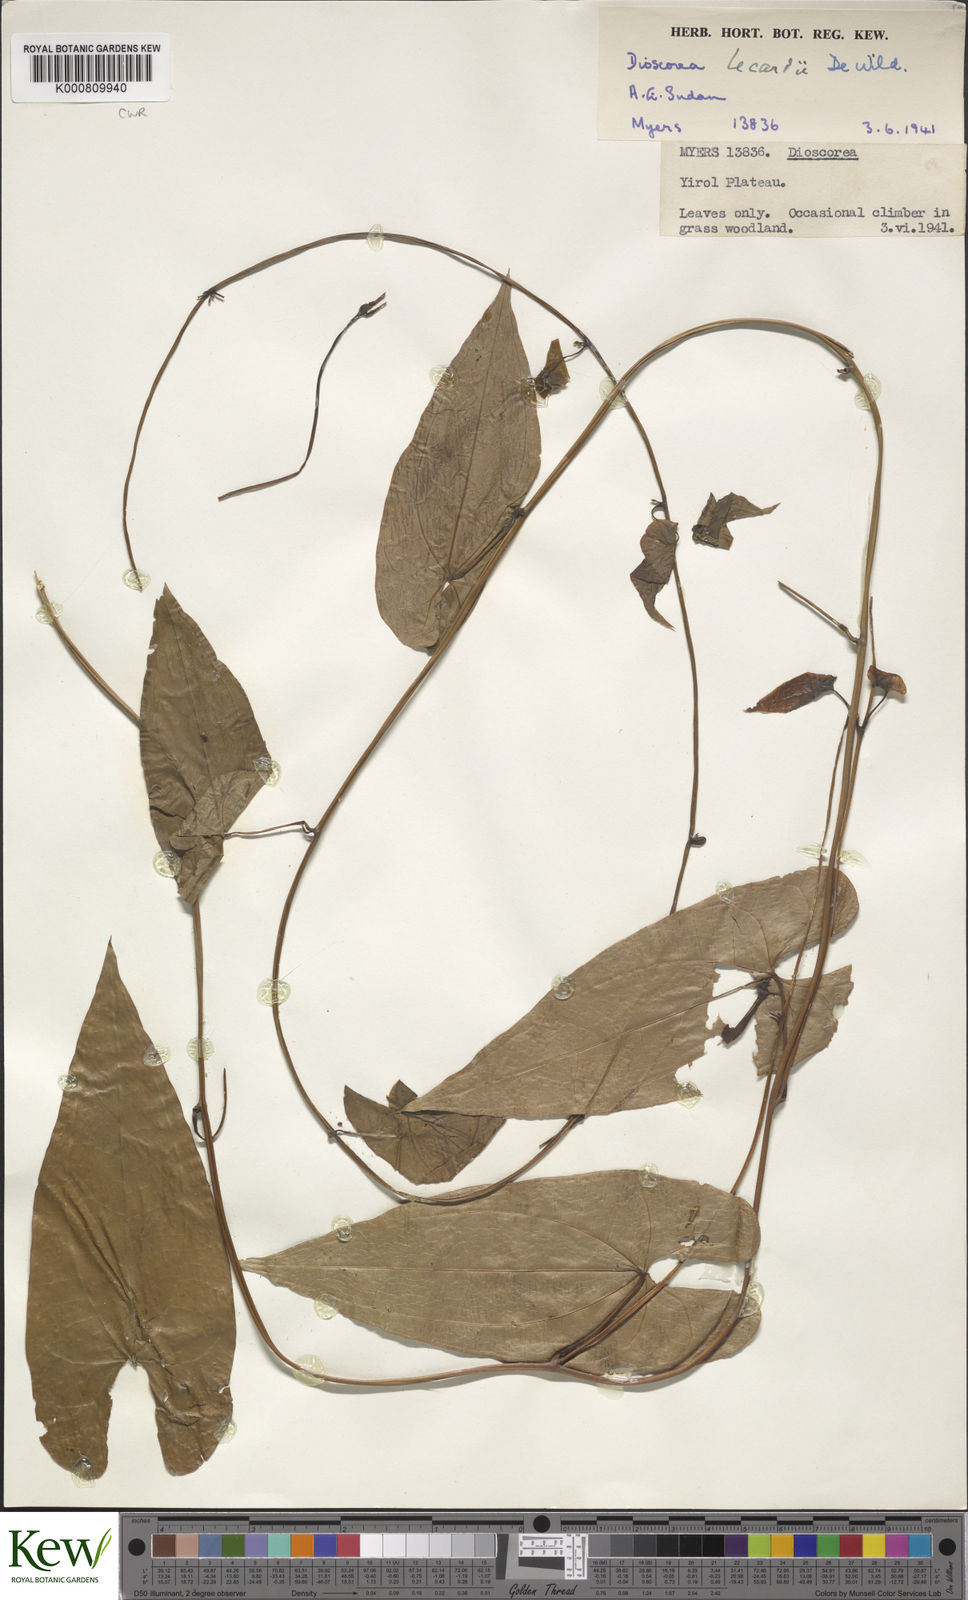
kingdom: Plantae
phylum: Tracheophyta
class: Liliopsida
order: Dioscoreales
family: Dioscoreaceae
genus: Dioscorea
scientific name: Dioscorea sagittifolia
